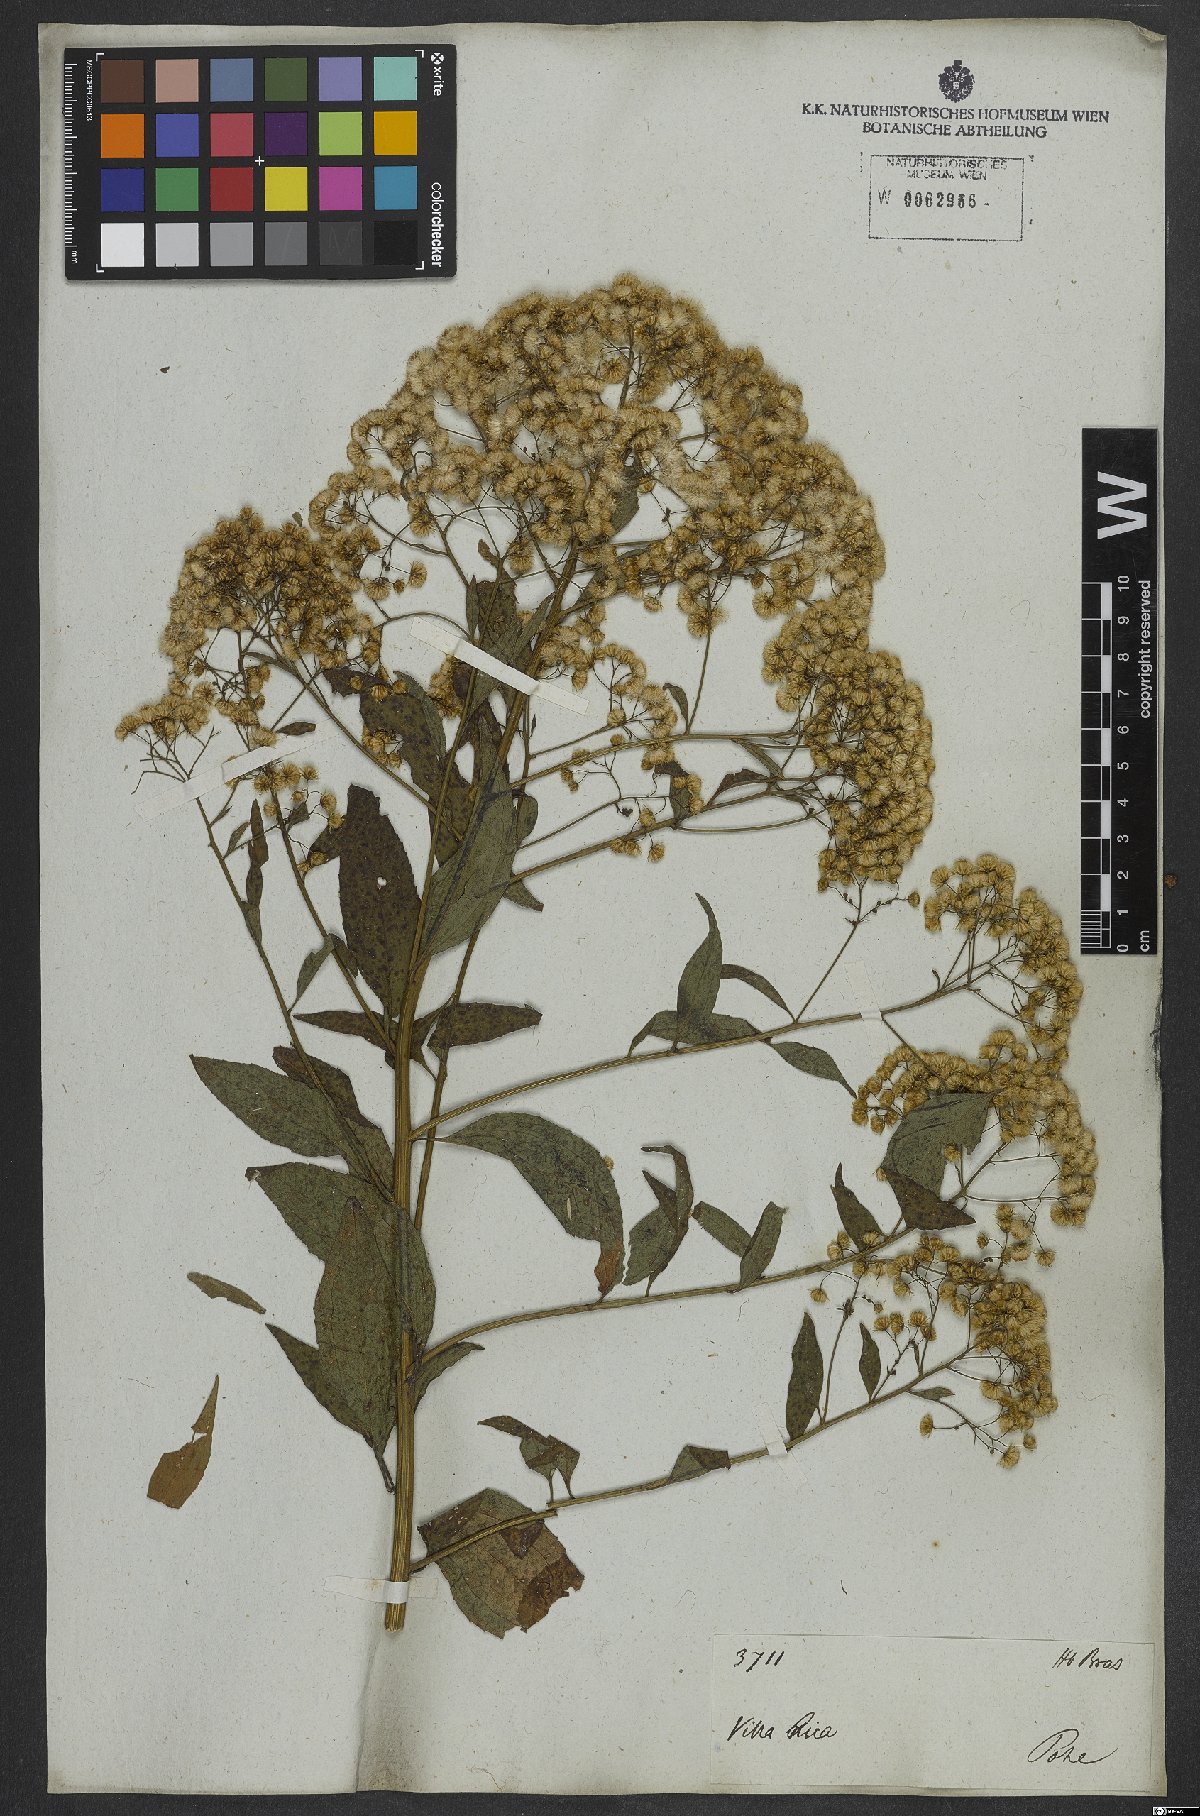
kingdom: Plantae
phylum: Tracheophyta
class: Magnoliopsida
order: Asterales
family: Asteraceae
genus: Archibaccharis
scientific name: Archibaccharis vulneraria
